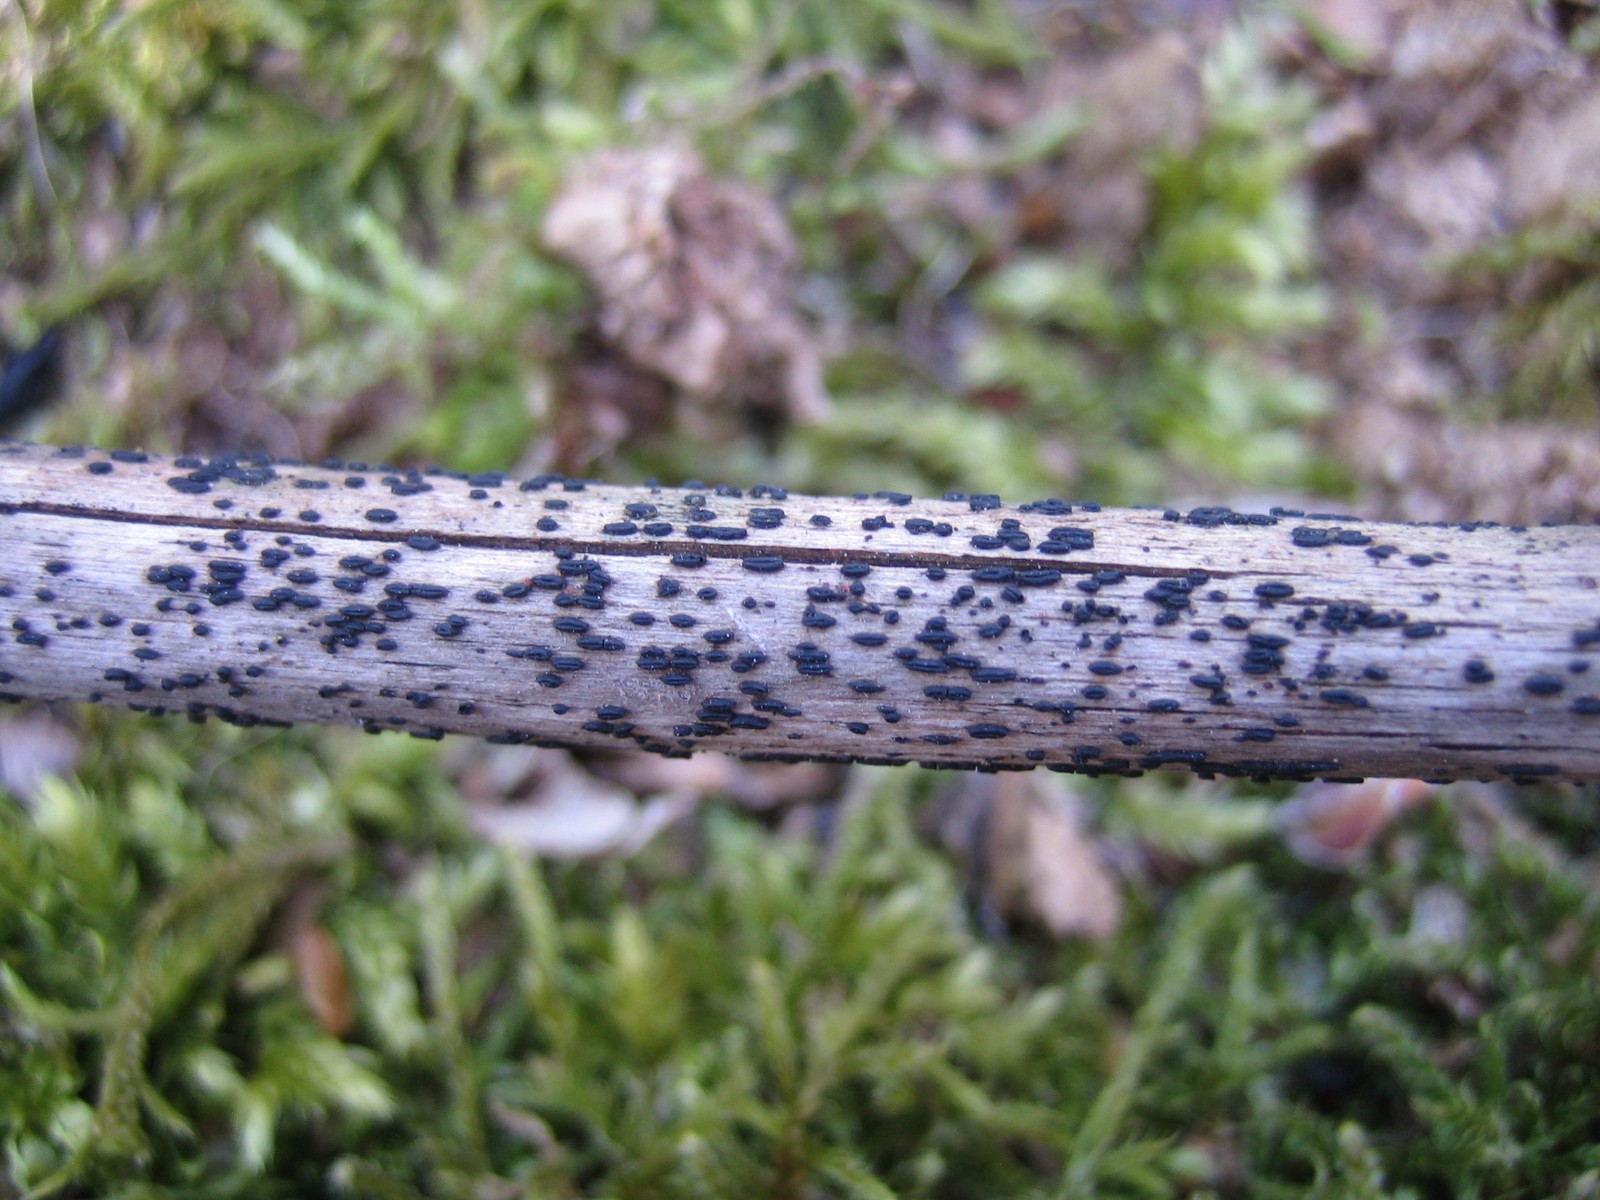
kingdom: Fungi
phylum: Ascomycota
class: Dothideomycetes
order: Hysteriales
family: Hysteriaceae
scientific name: Hysteriaceae
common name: kulmundfamilien
